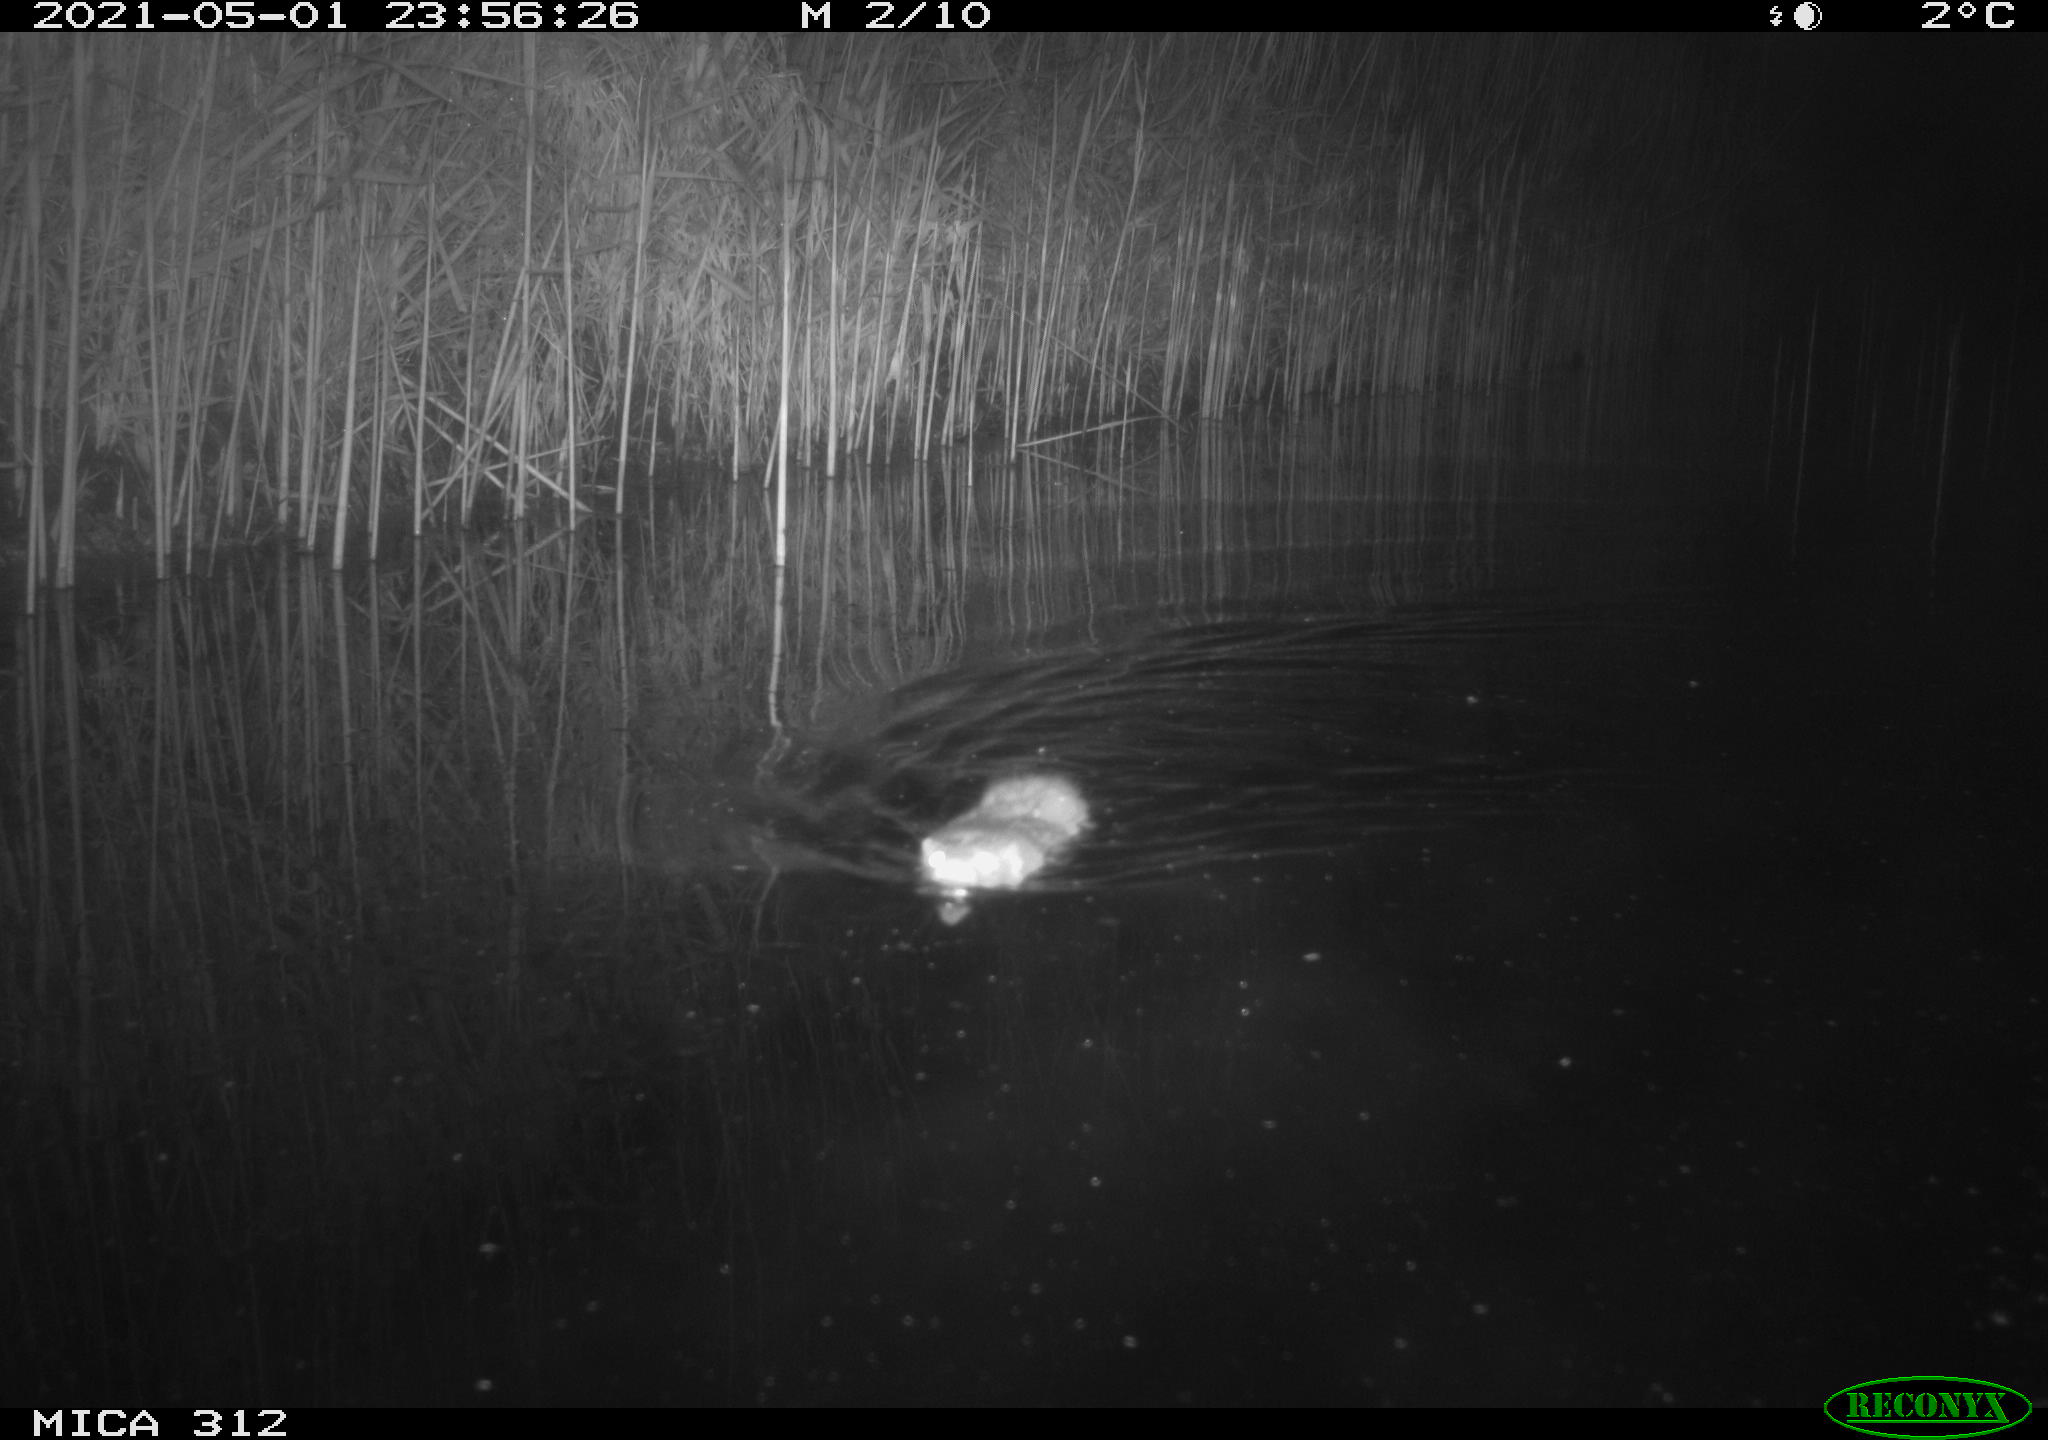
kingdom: Animalia
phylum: Chordata
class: Mammalia
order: Rodentia
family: Cricetidae
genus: Ondatra
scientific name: Ondatra zibethicus
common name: Muskrat
